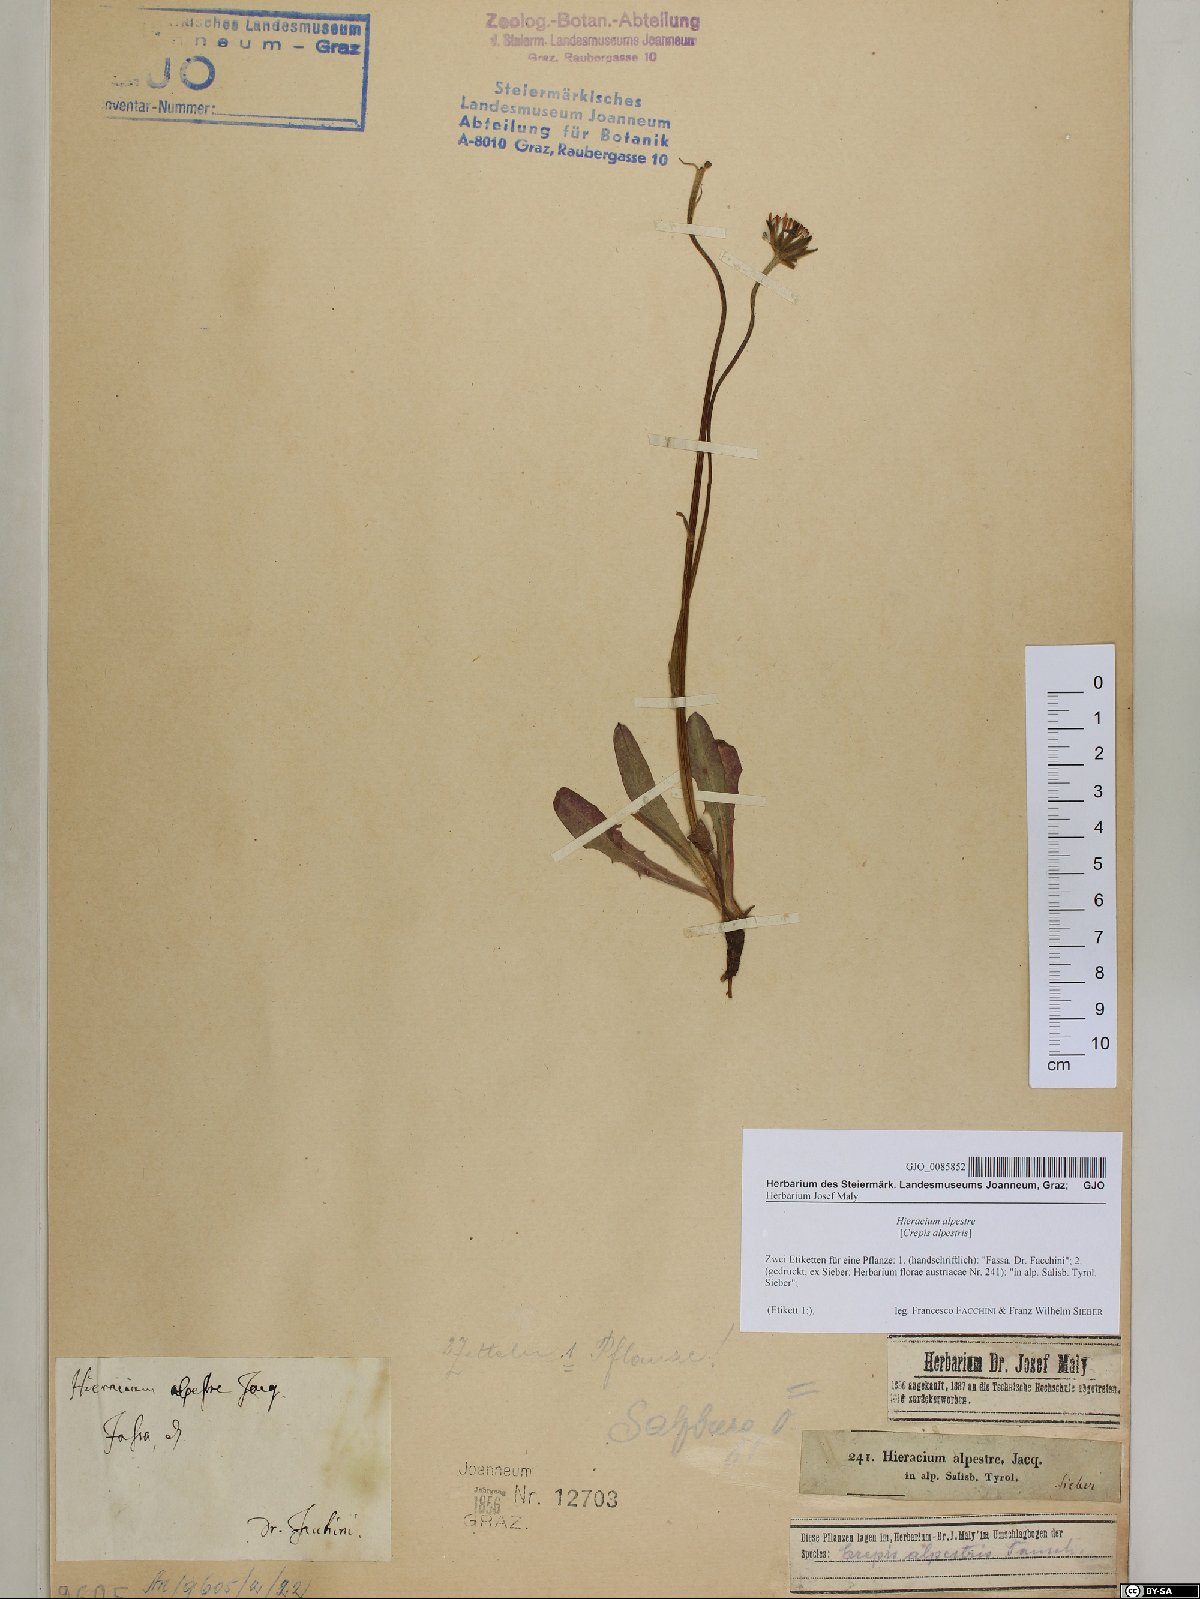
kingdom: Plantae
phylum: Tracheophyta
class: Magnoliopsida
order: Asterales
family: Asteraceae
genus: Crepis
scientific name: Crepis alpestris
